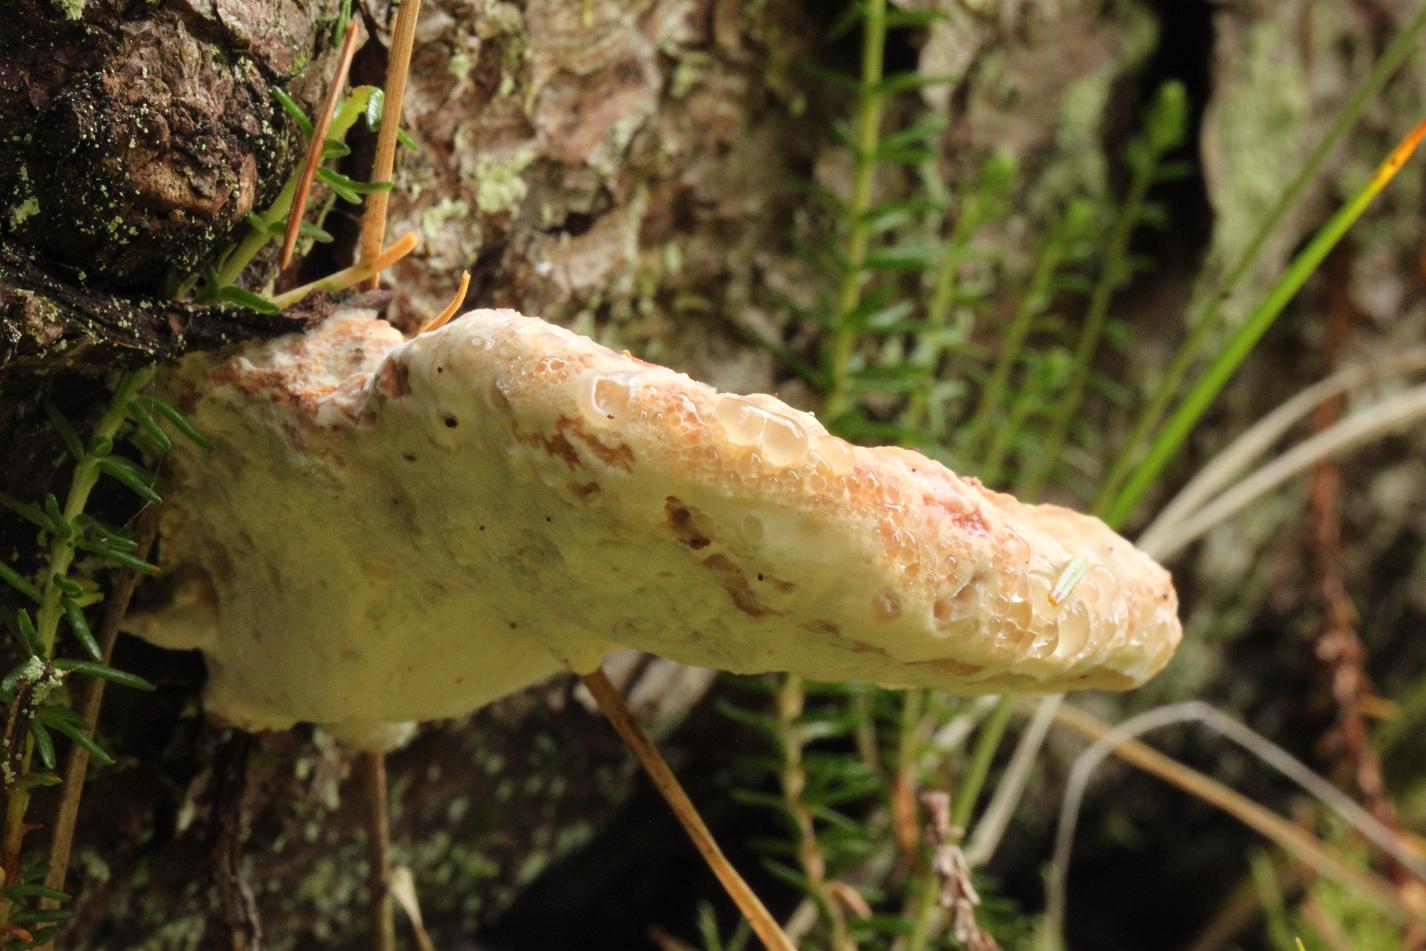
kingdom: Fungi
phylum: Basidiomycota
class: Agaricomycetes
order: Polyporales
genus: Calcipostia
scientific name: Calcipostia guttulata
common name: dråbe-kødporesvamp
